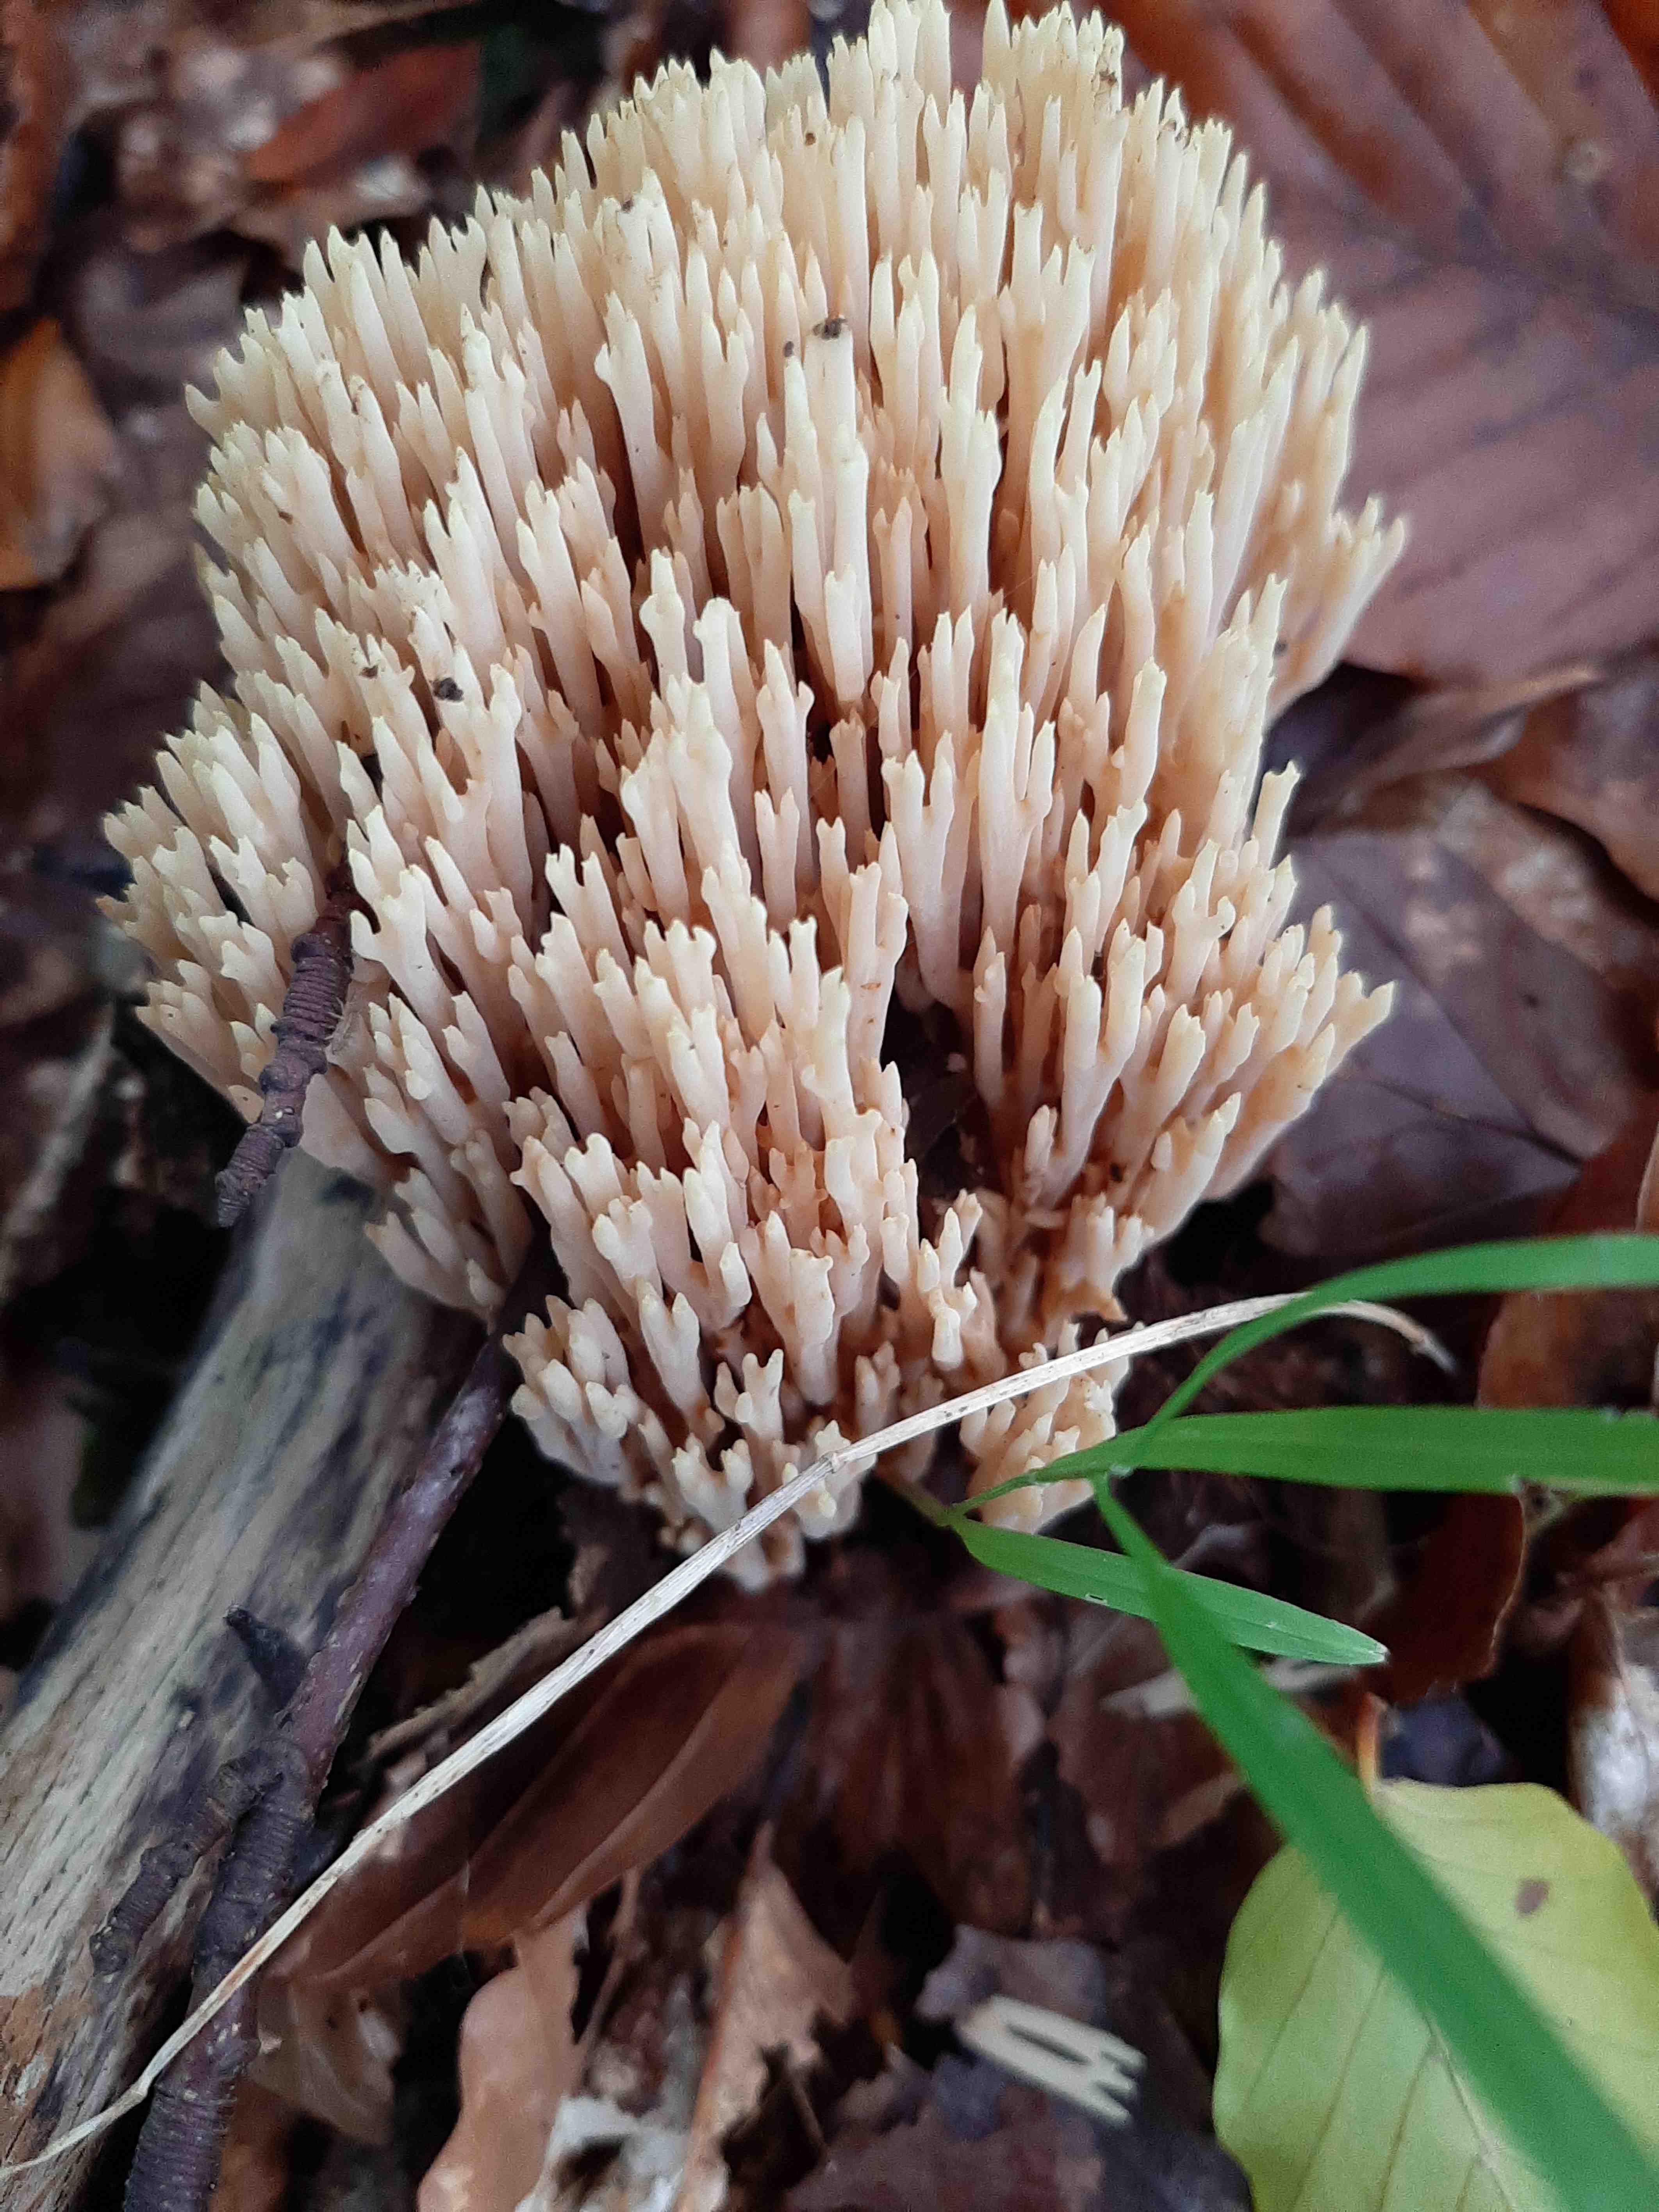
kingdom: Fungi
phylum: Basidiomycota
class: Agaricomycetes
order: Gomphales
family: Gomphaceae
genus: Ramaria
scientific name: Ramaria stricta
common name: rank koralsvamp
